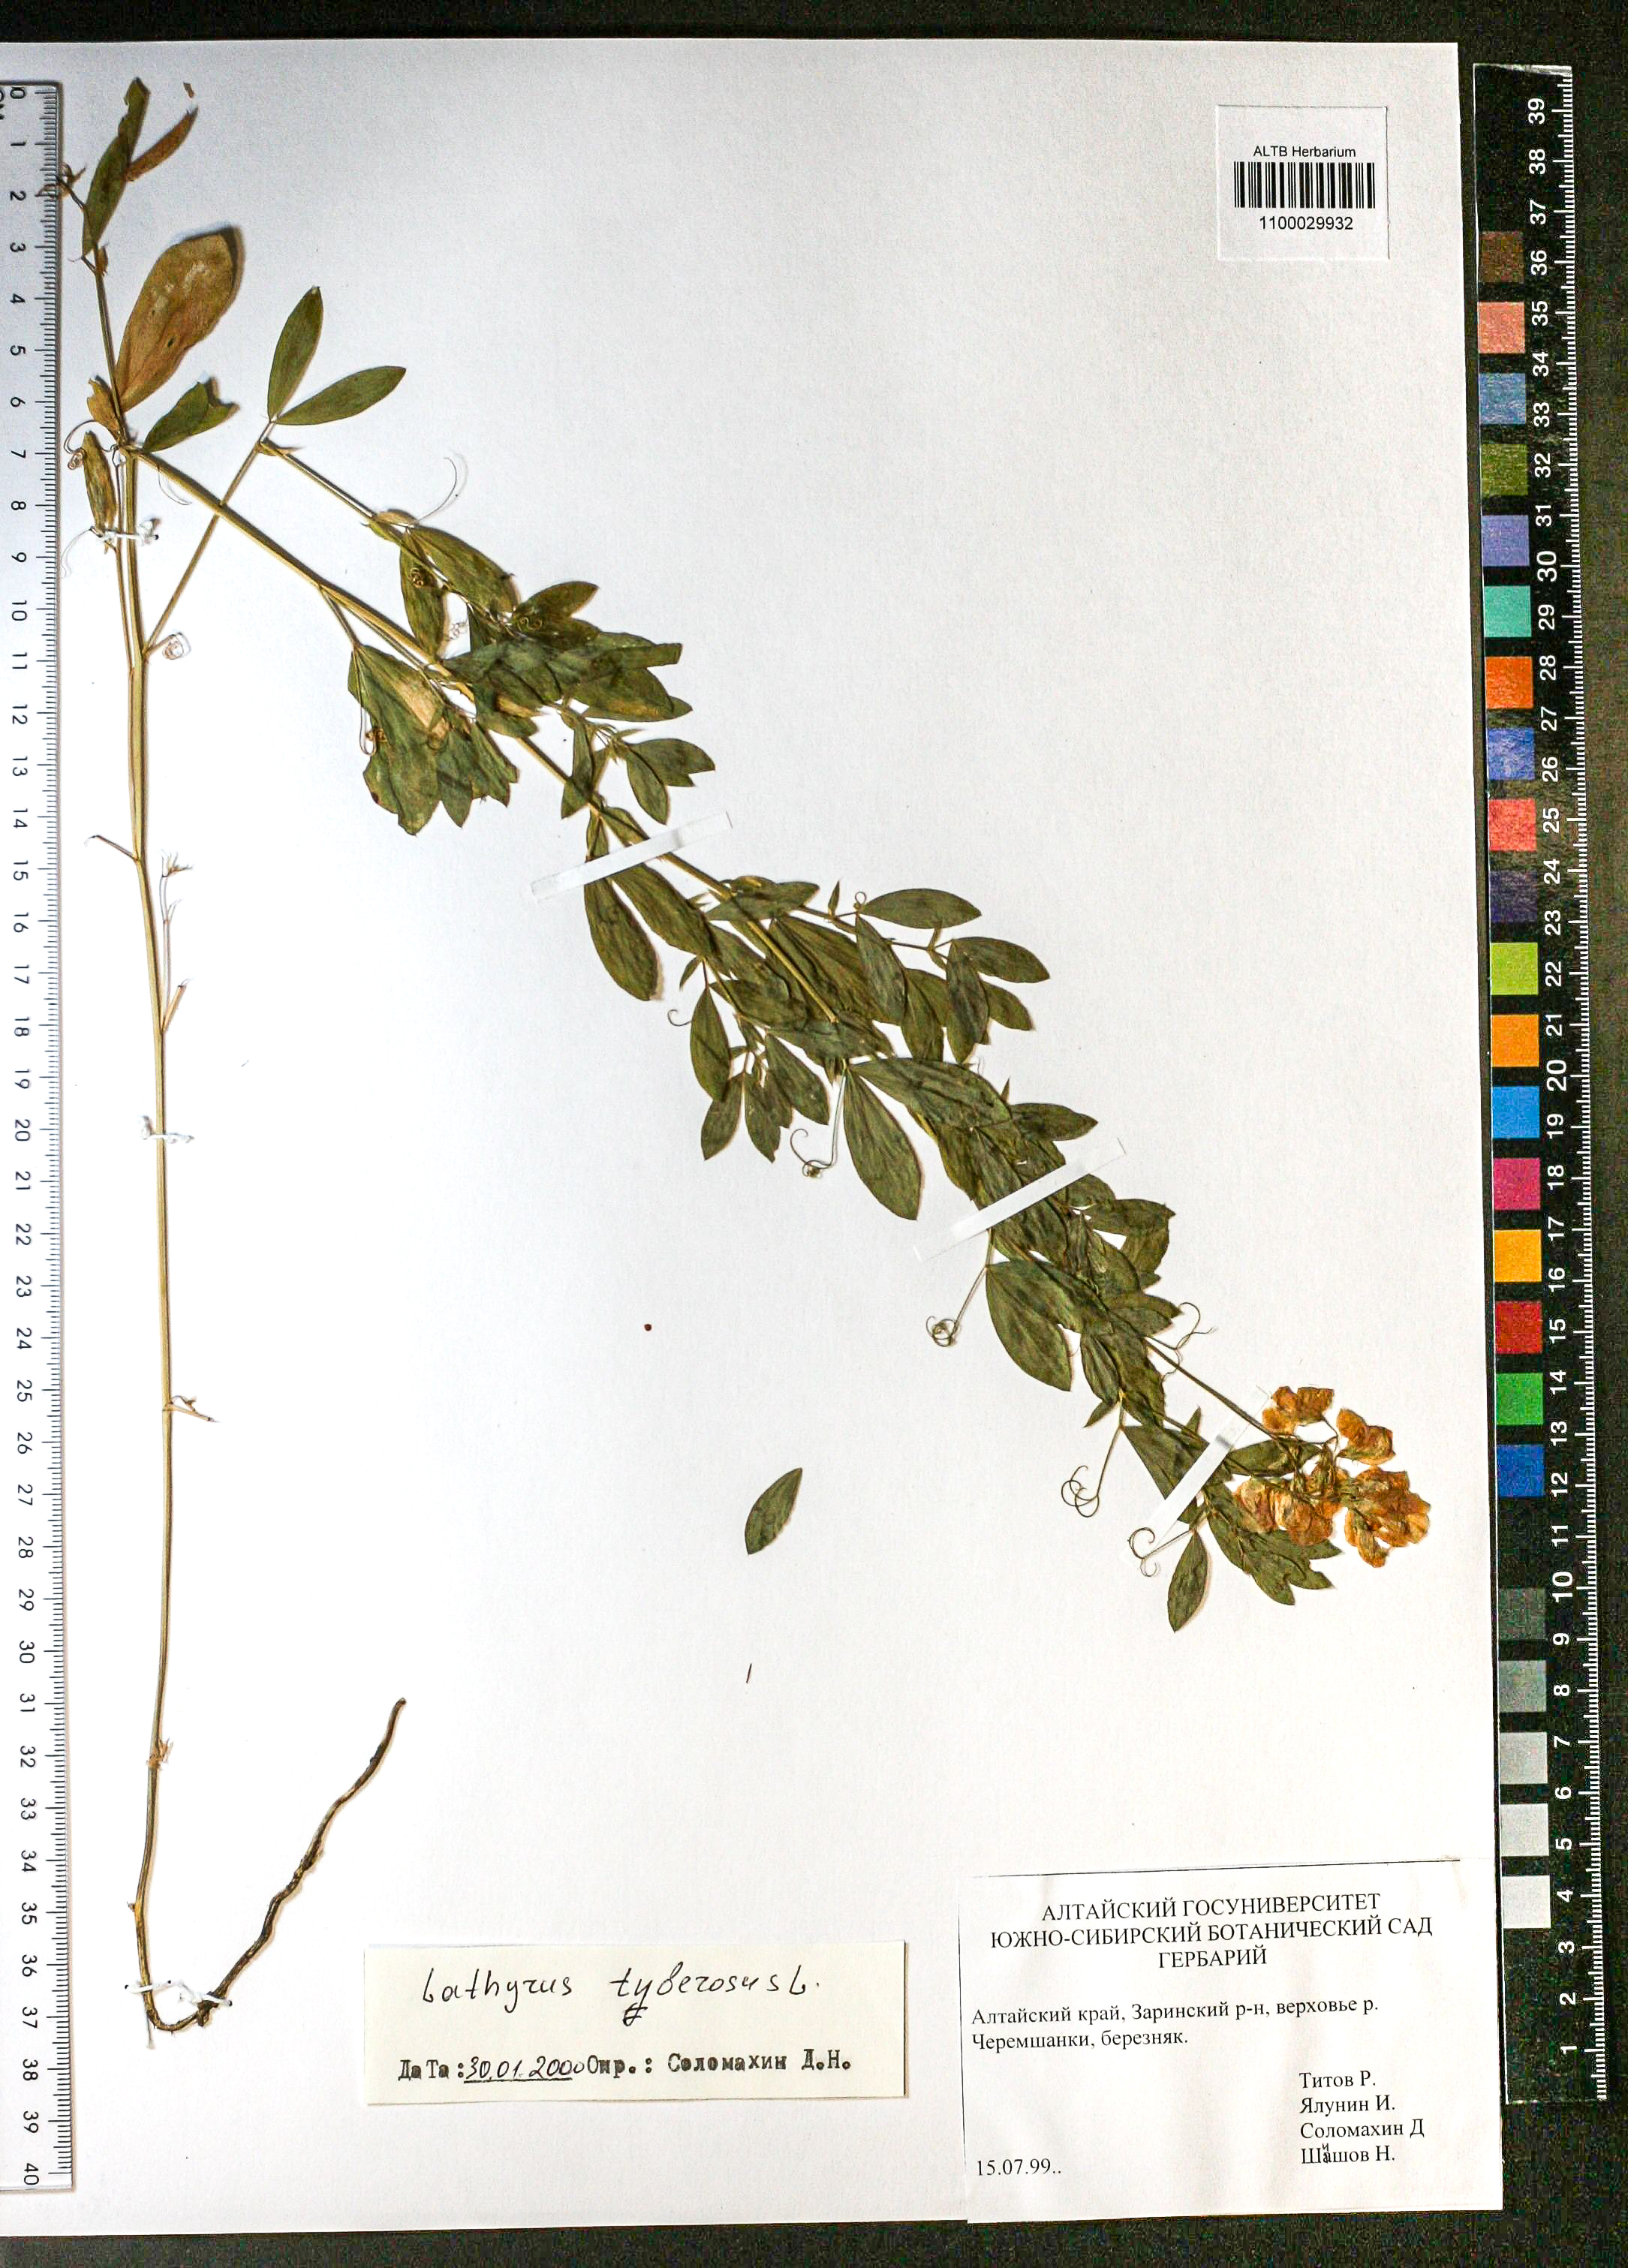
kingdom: Plantae
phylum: Tracheophyta
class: Magnoliopsida
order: Fabales
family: Fabaceae
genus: Trifolium
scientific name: Trifolium lupinaster
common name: Lupine clover
